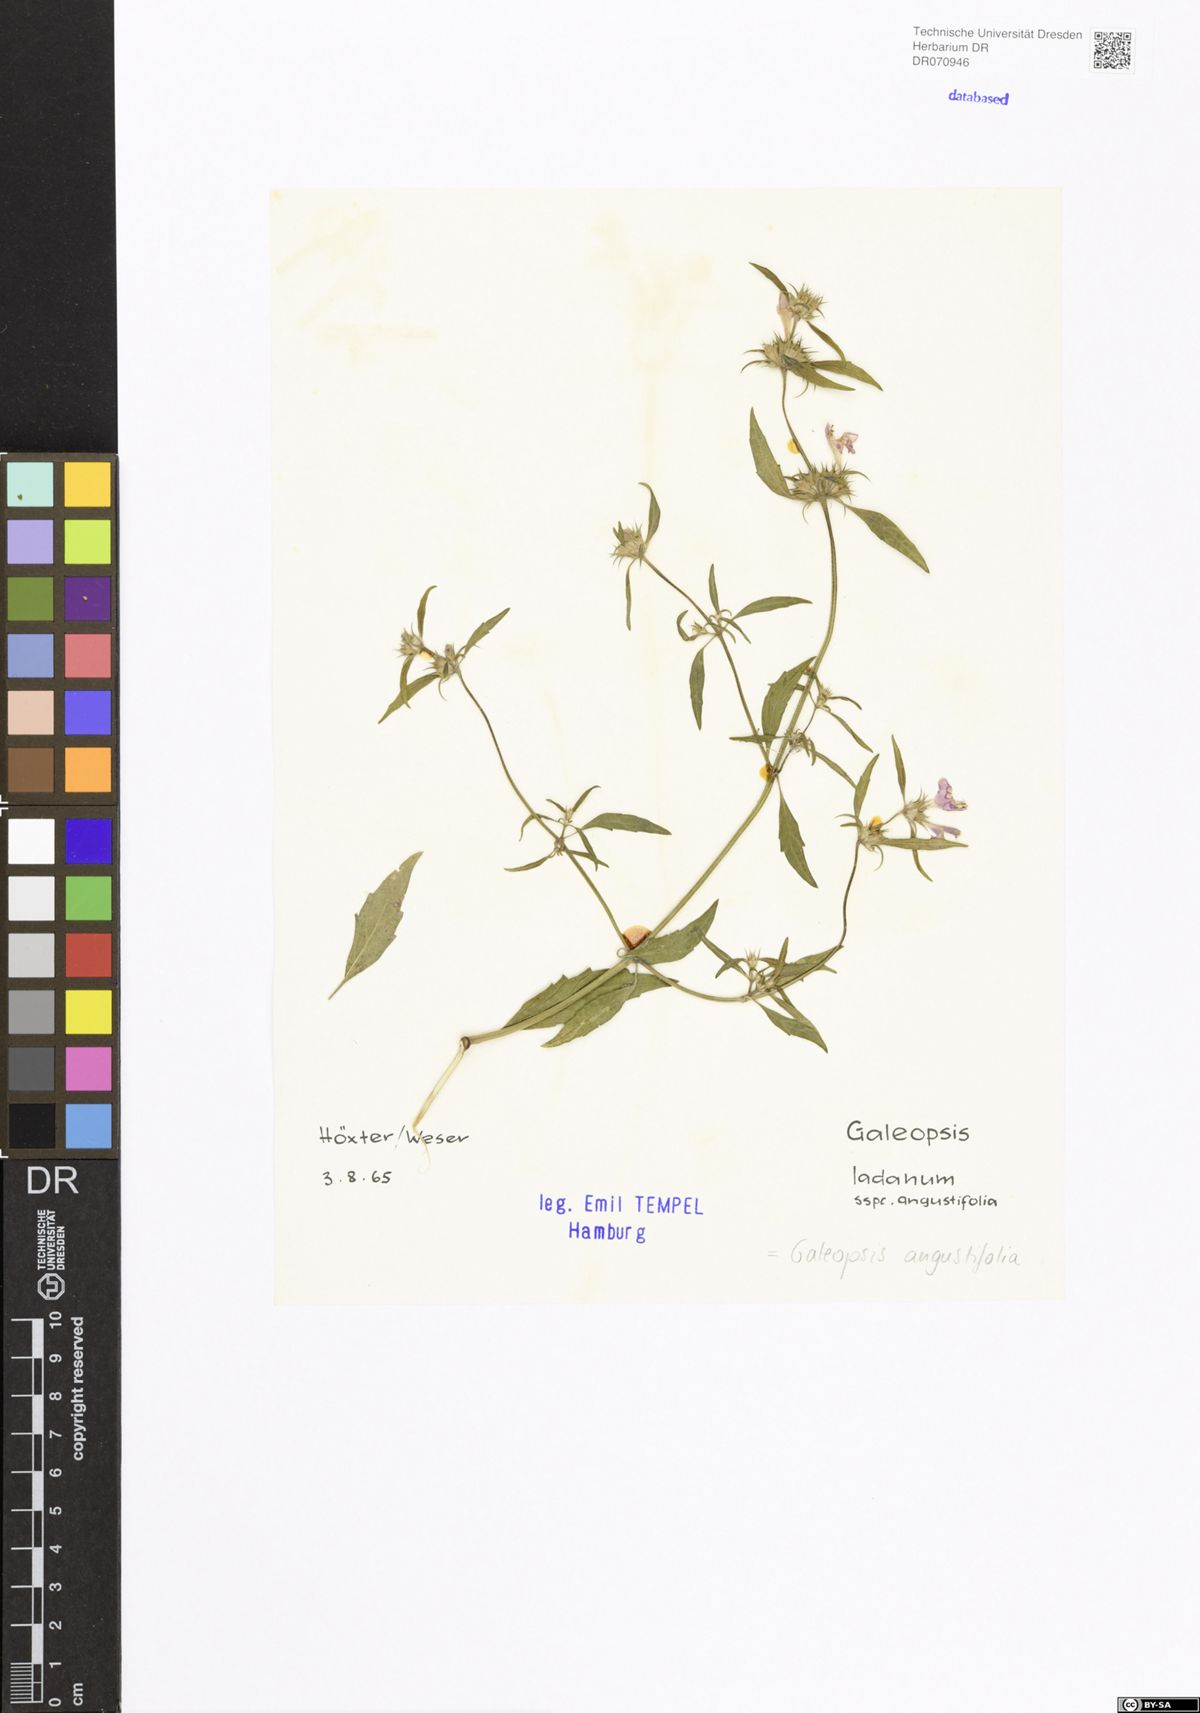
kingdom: Plantae
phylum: Tracheophyta
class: Magnoliopsida
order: Lamiales
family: Lamiaceae
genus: Galeopsis
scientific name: Galeopsis angustifolia
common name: Red hemp-nettle
